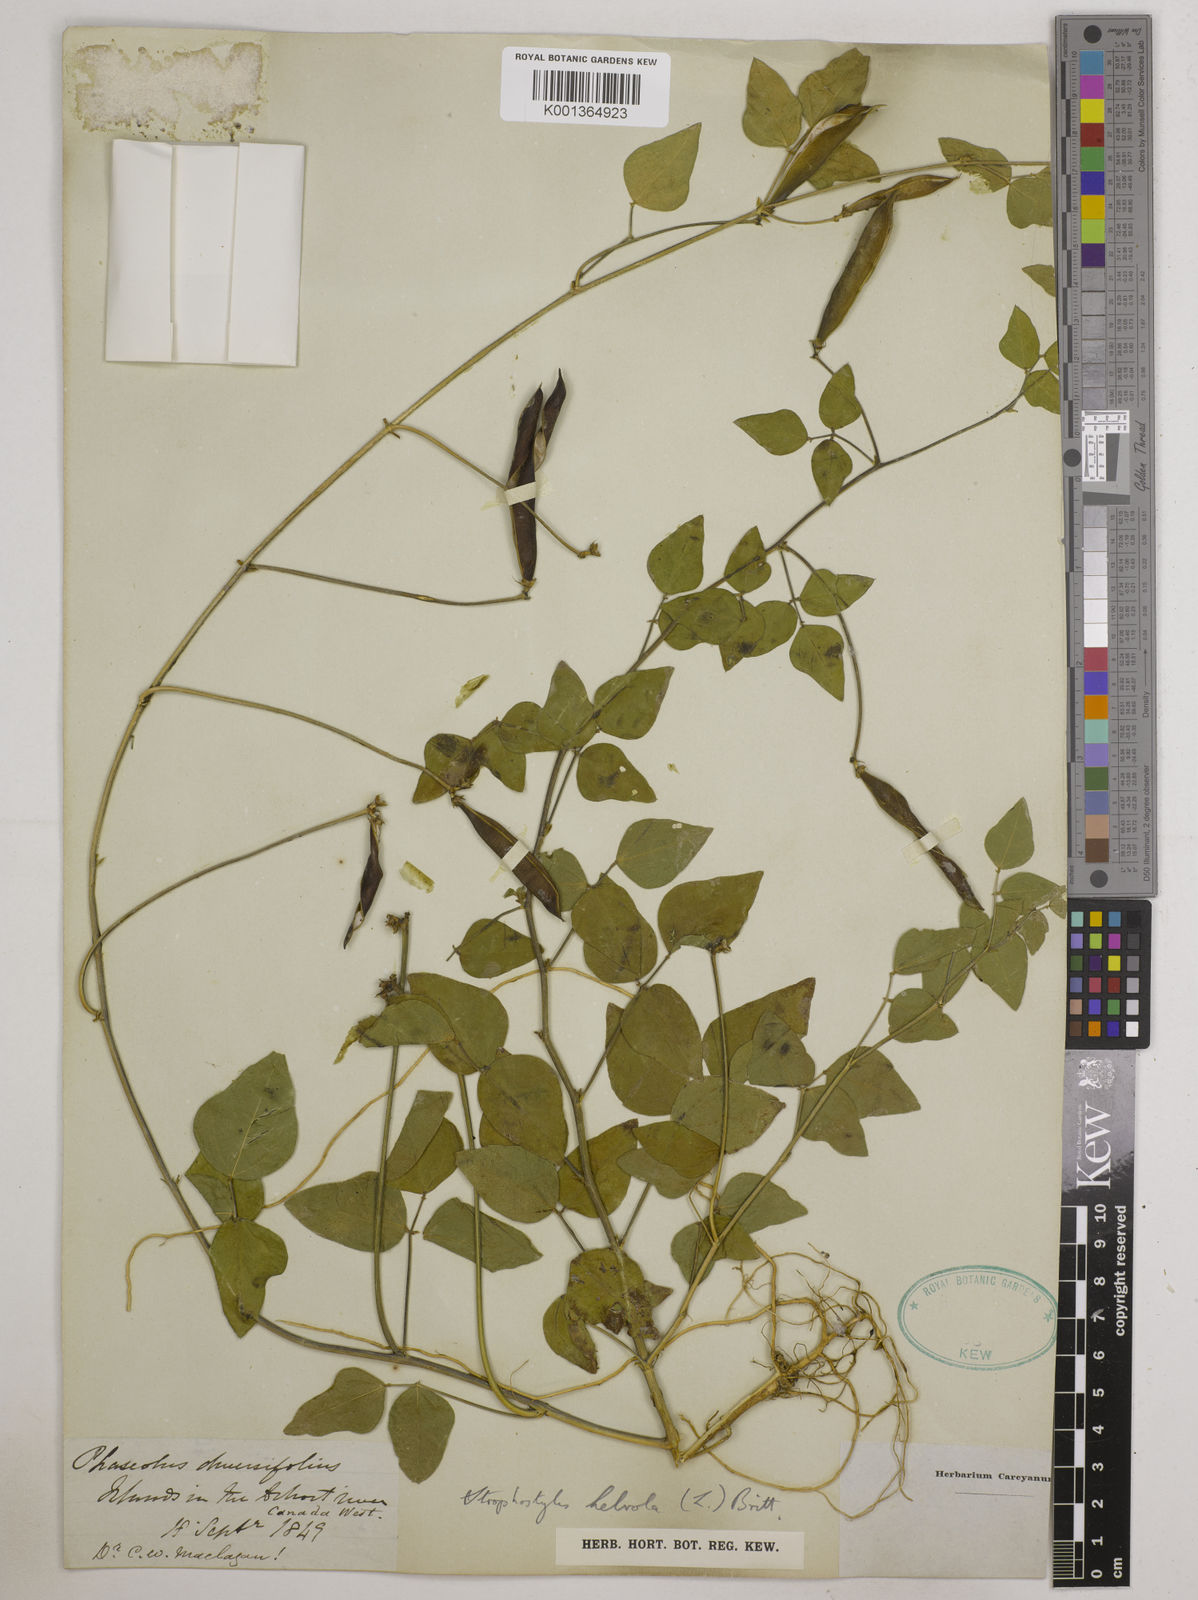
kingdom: Plantae
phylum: Tracheophyta
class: Magnoliopsida
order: Fabales
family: Fabaceae
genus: Strophostyles
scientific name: Strophostyles
